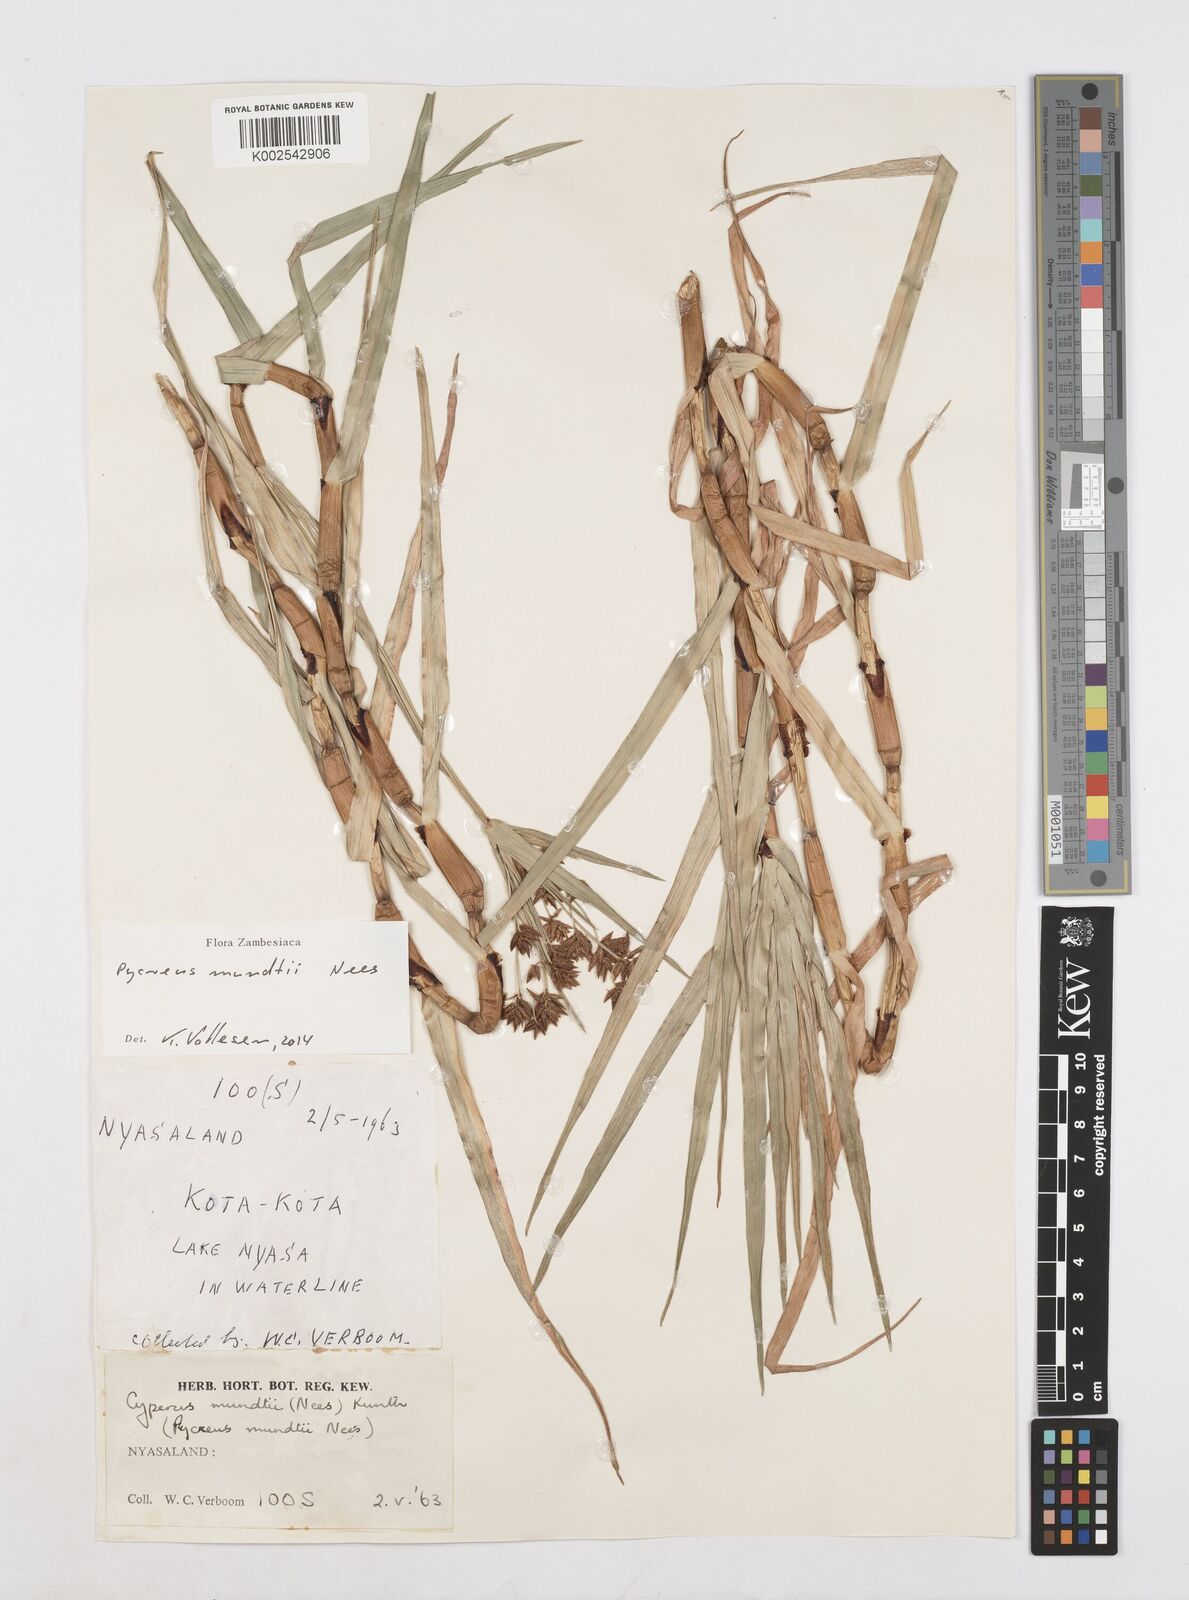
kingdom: Plantae
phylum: Tracheophyta
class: Liliopsida
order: Poales
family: Cyperaceae
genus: Cyperus
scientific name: Cyperus mundii
